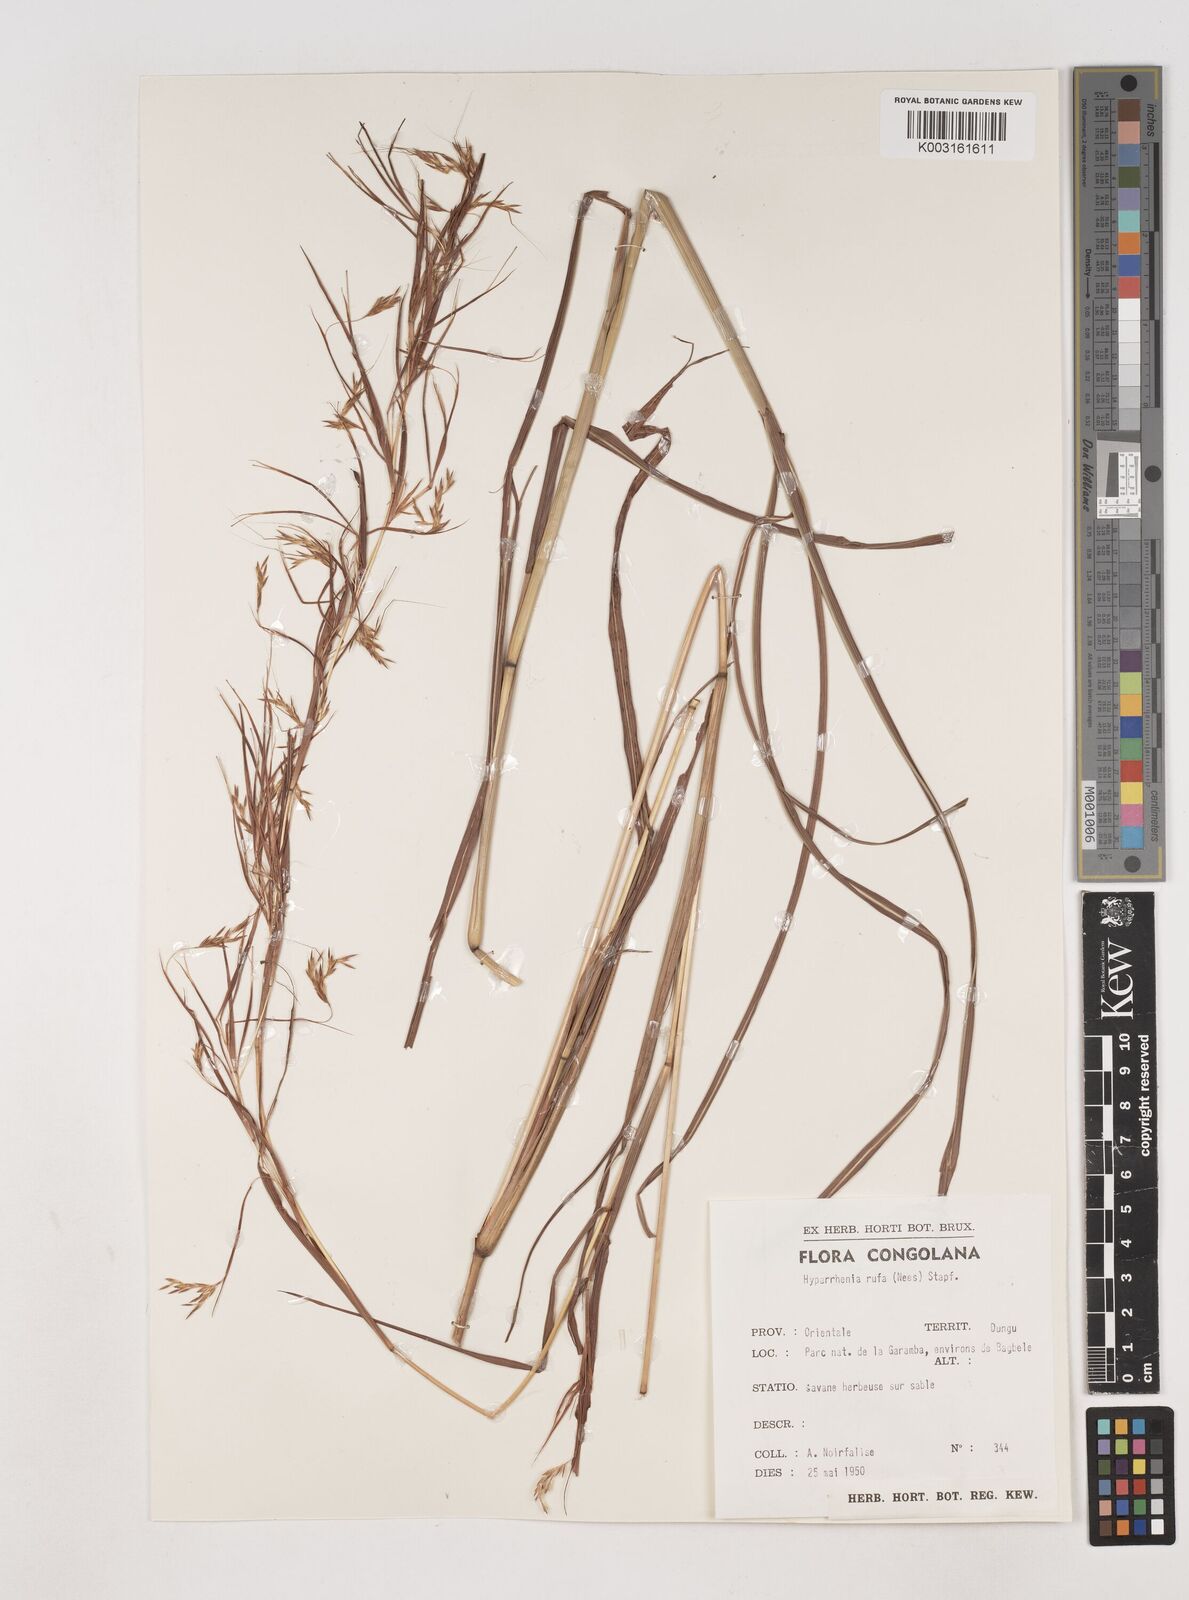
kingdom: Plantae
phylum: Tracheophyta
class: Liliopsida
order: Poales
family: Poaceae
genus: Hyparrhenia
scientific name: Hyparrhenia rufa
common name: Jaraguagrass
